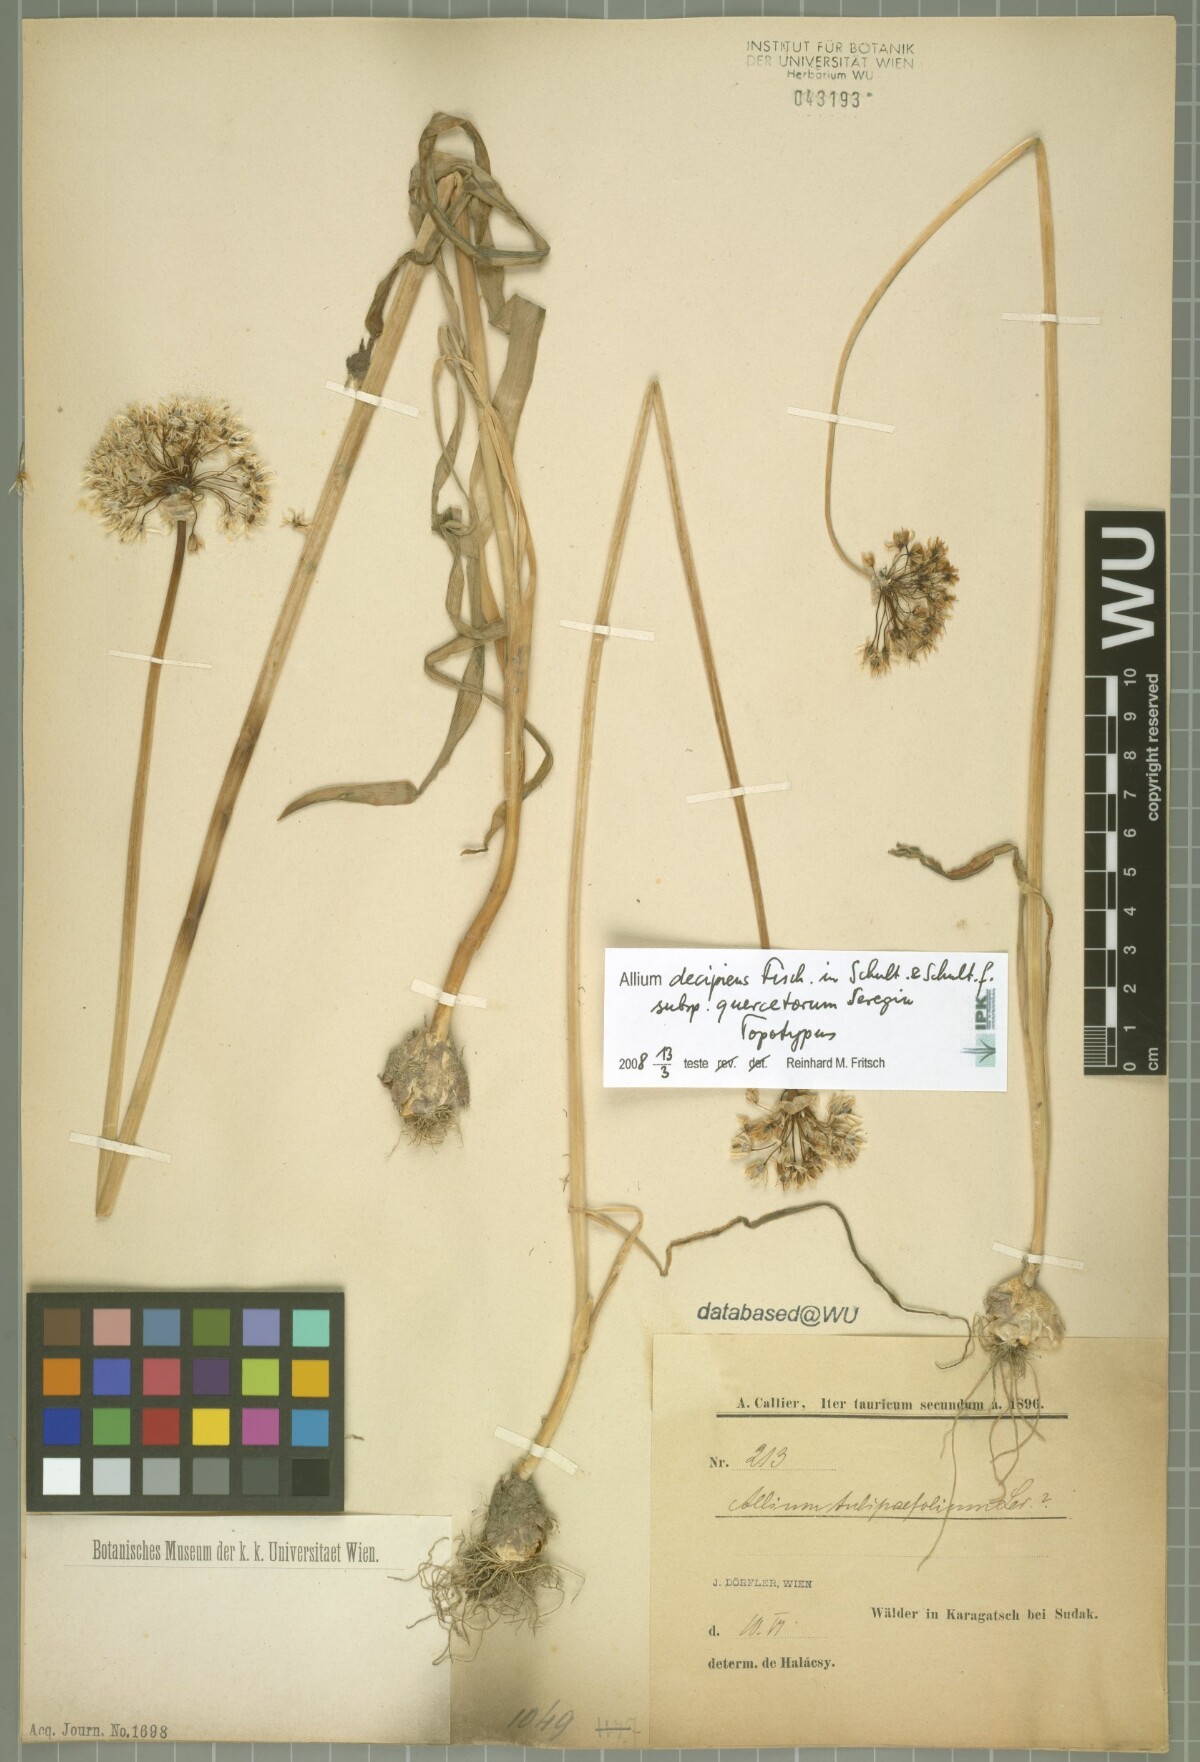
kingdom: Plantae
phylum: Tracheophyta
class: Liliopsida
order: Asparagales
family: Amaryllidaceae
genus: Allium
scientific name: Allium quercetorum
